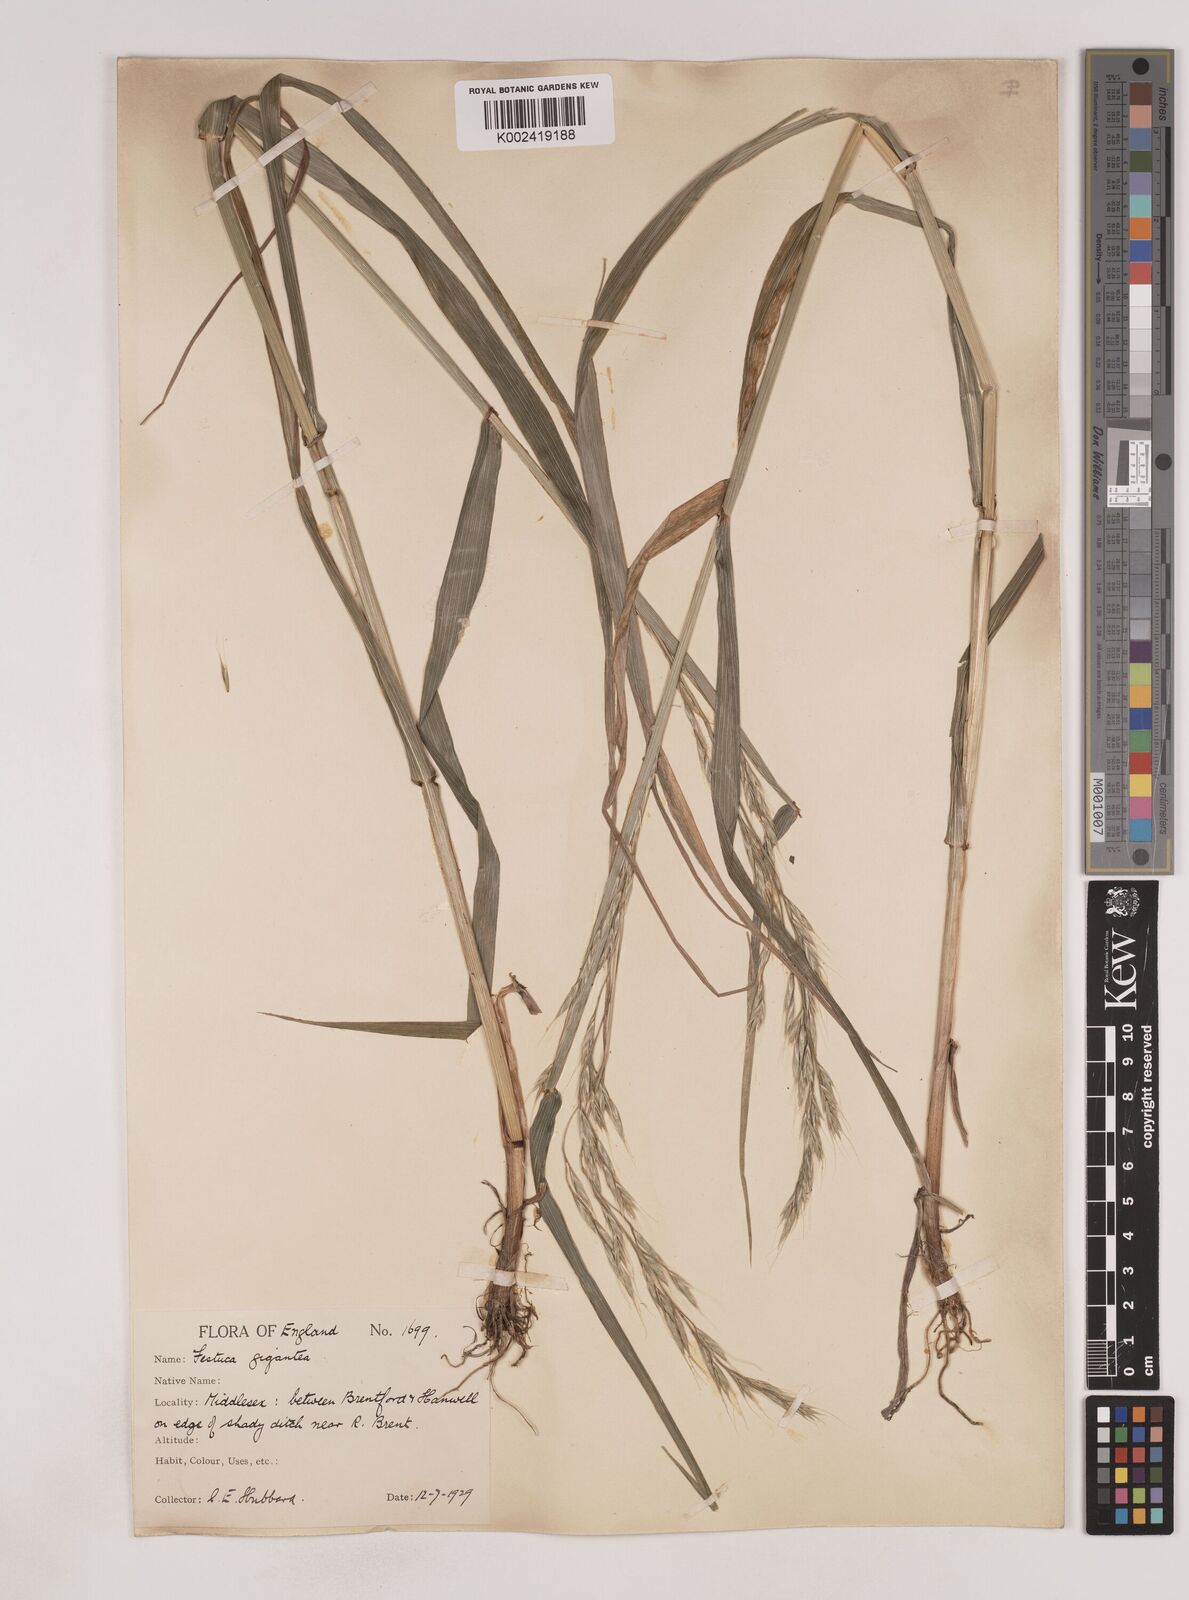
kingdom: Plantae
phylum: Tracheophyta
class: Liliopsida
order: Poales
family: Poaceae
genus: Lolium
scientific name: Lolium giganteum
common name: Giant fescue
